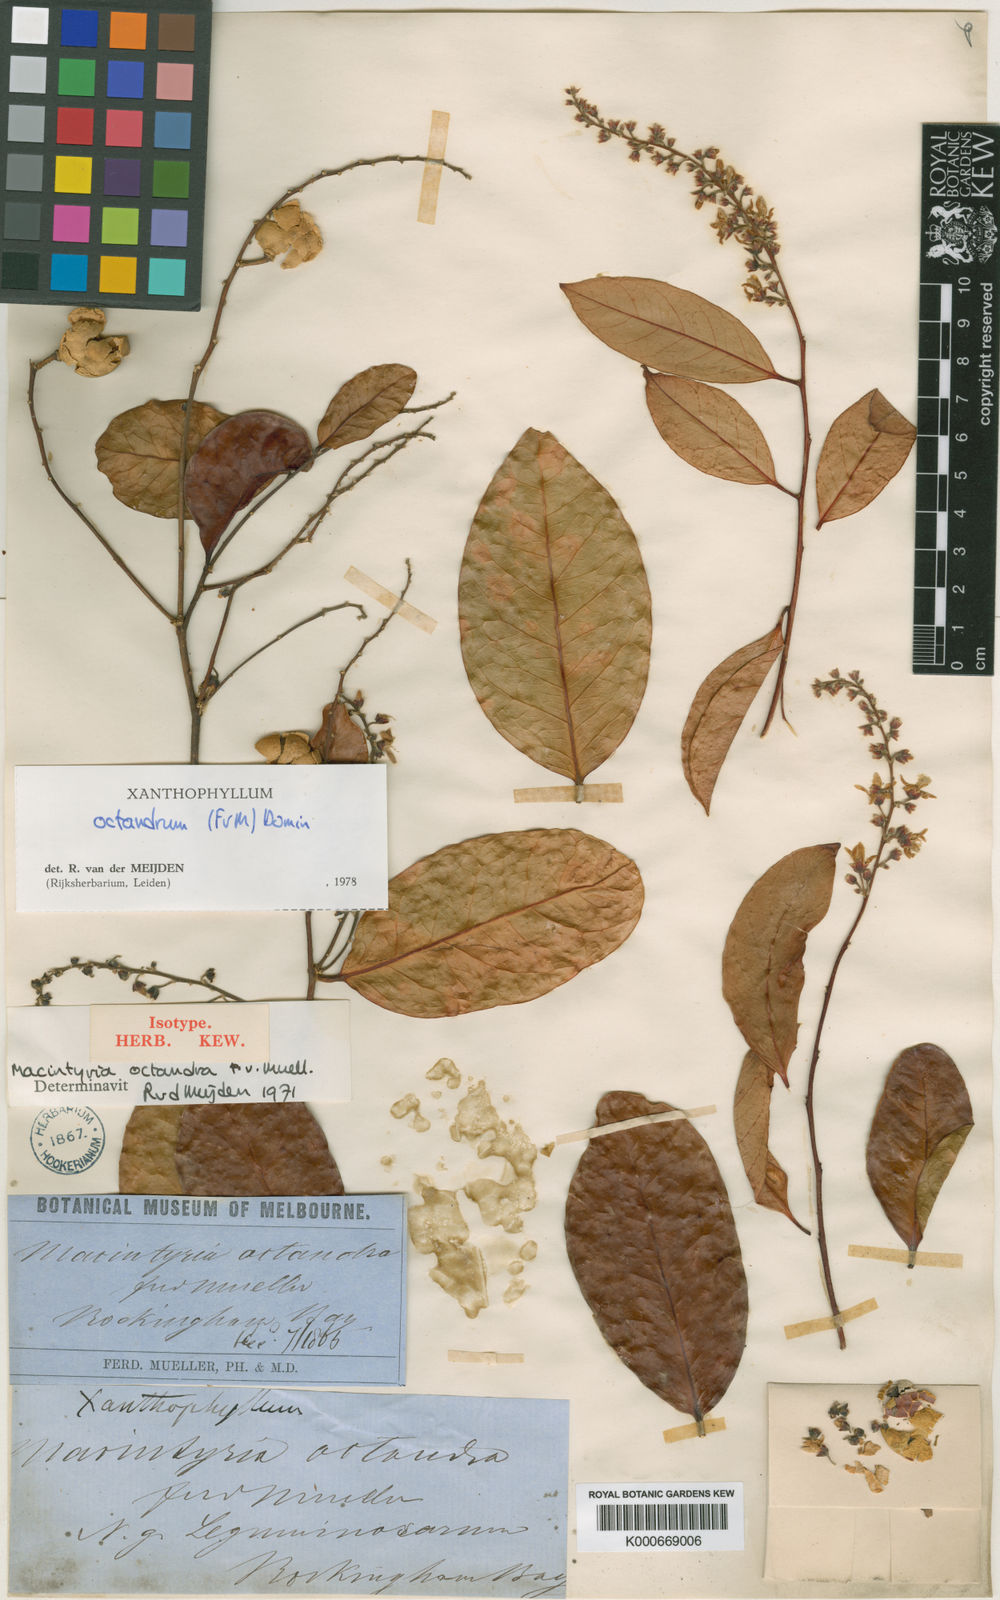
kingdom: Plantae
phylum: Tracheophyta
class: Magnoliopsida
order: Fabales
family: Polygalaceae
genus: Xanthophyllum
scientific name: Xanthophyllum octandrum
